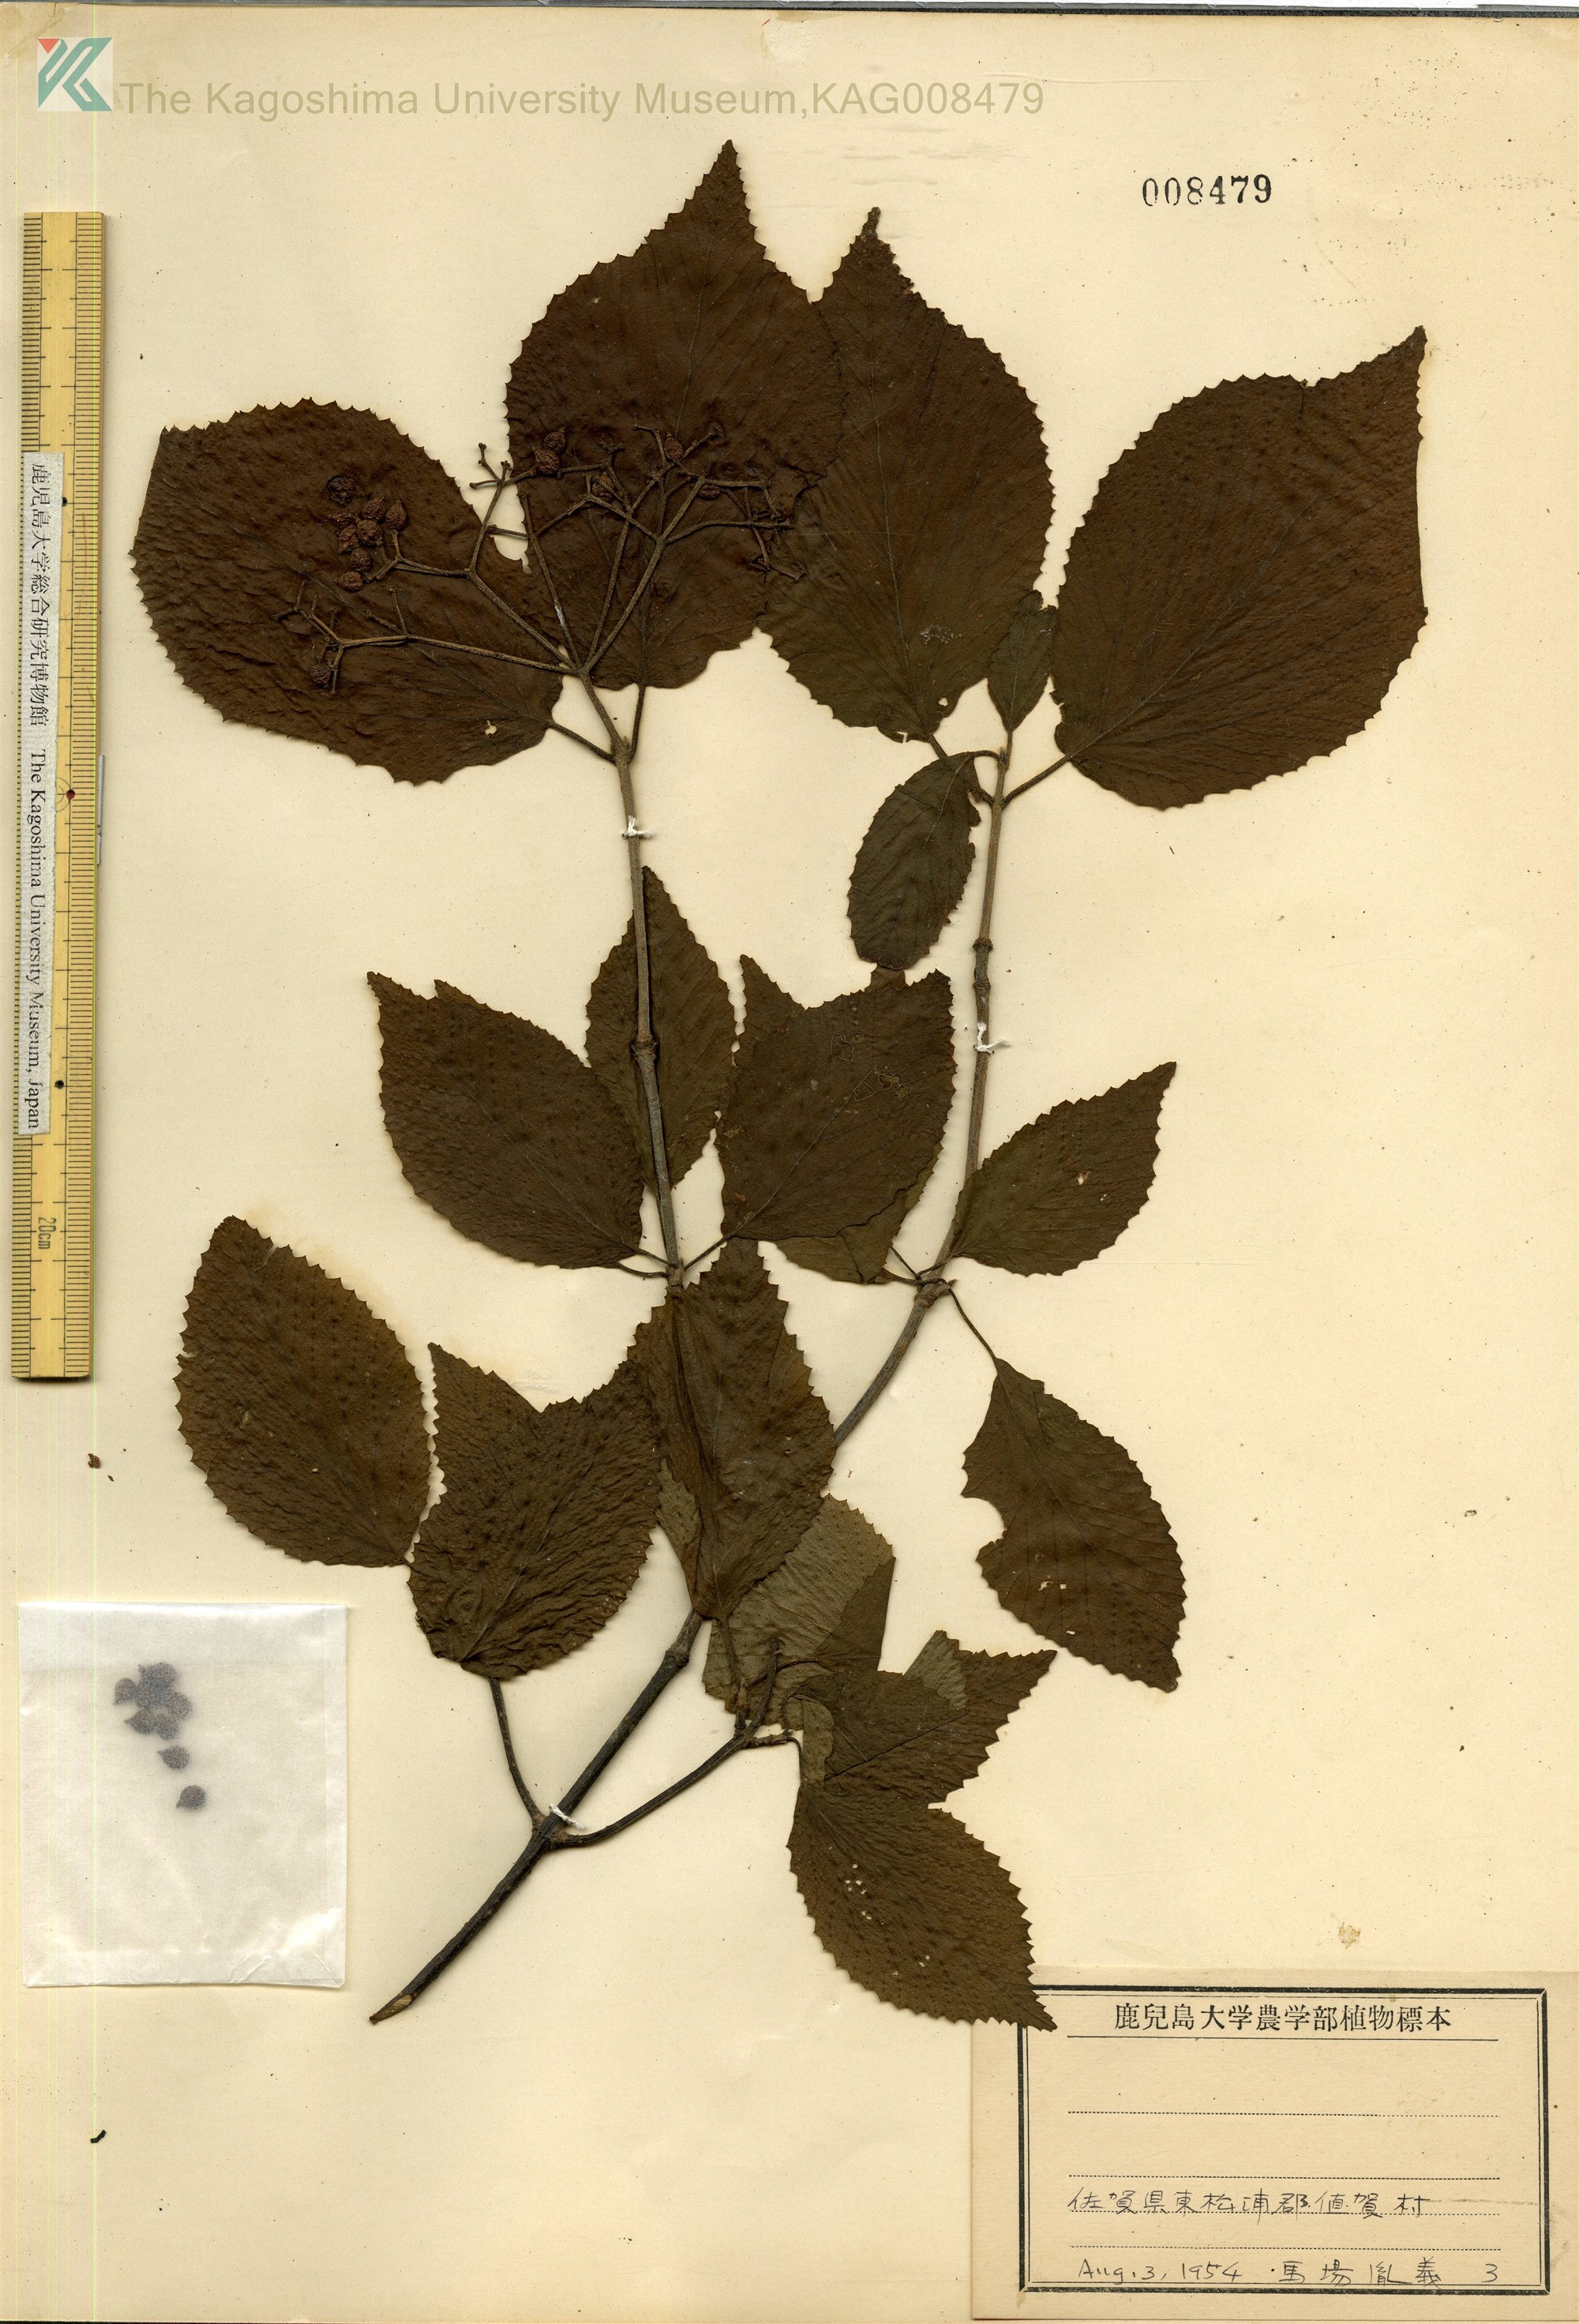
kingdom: Plantae
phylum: Tracheophyta
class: Magnoliopsida
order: Dipsacales
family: Viburnaceae
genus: Viburnum
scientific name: Viburnum dilatatum
